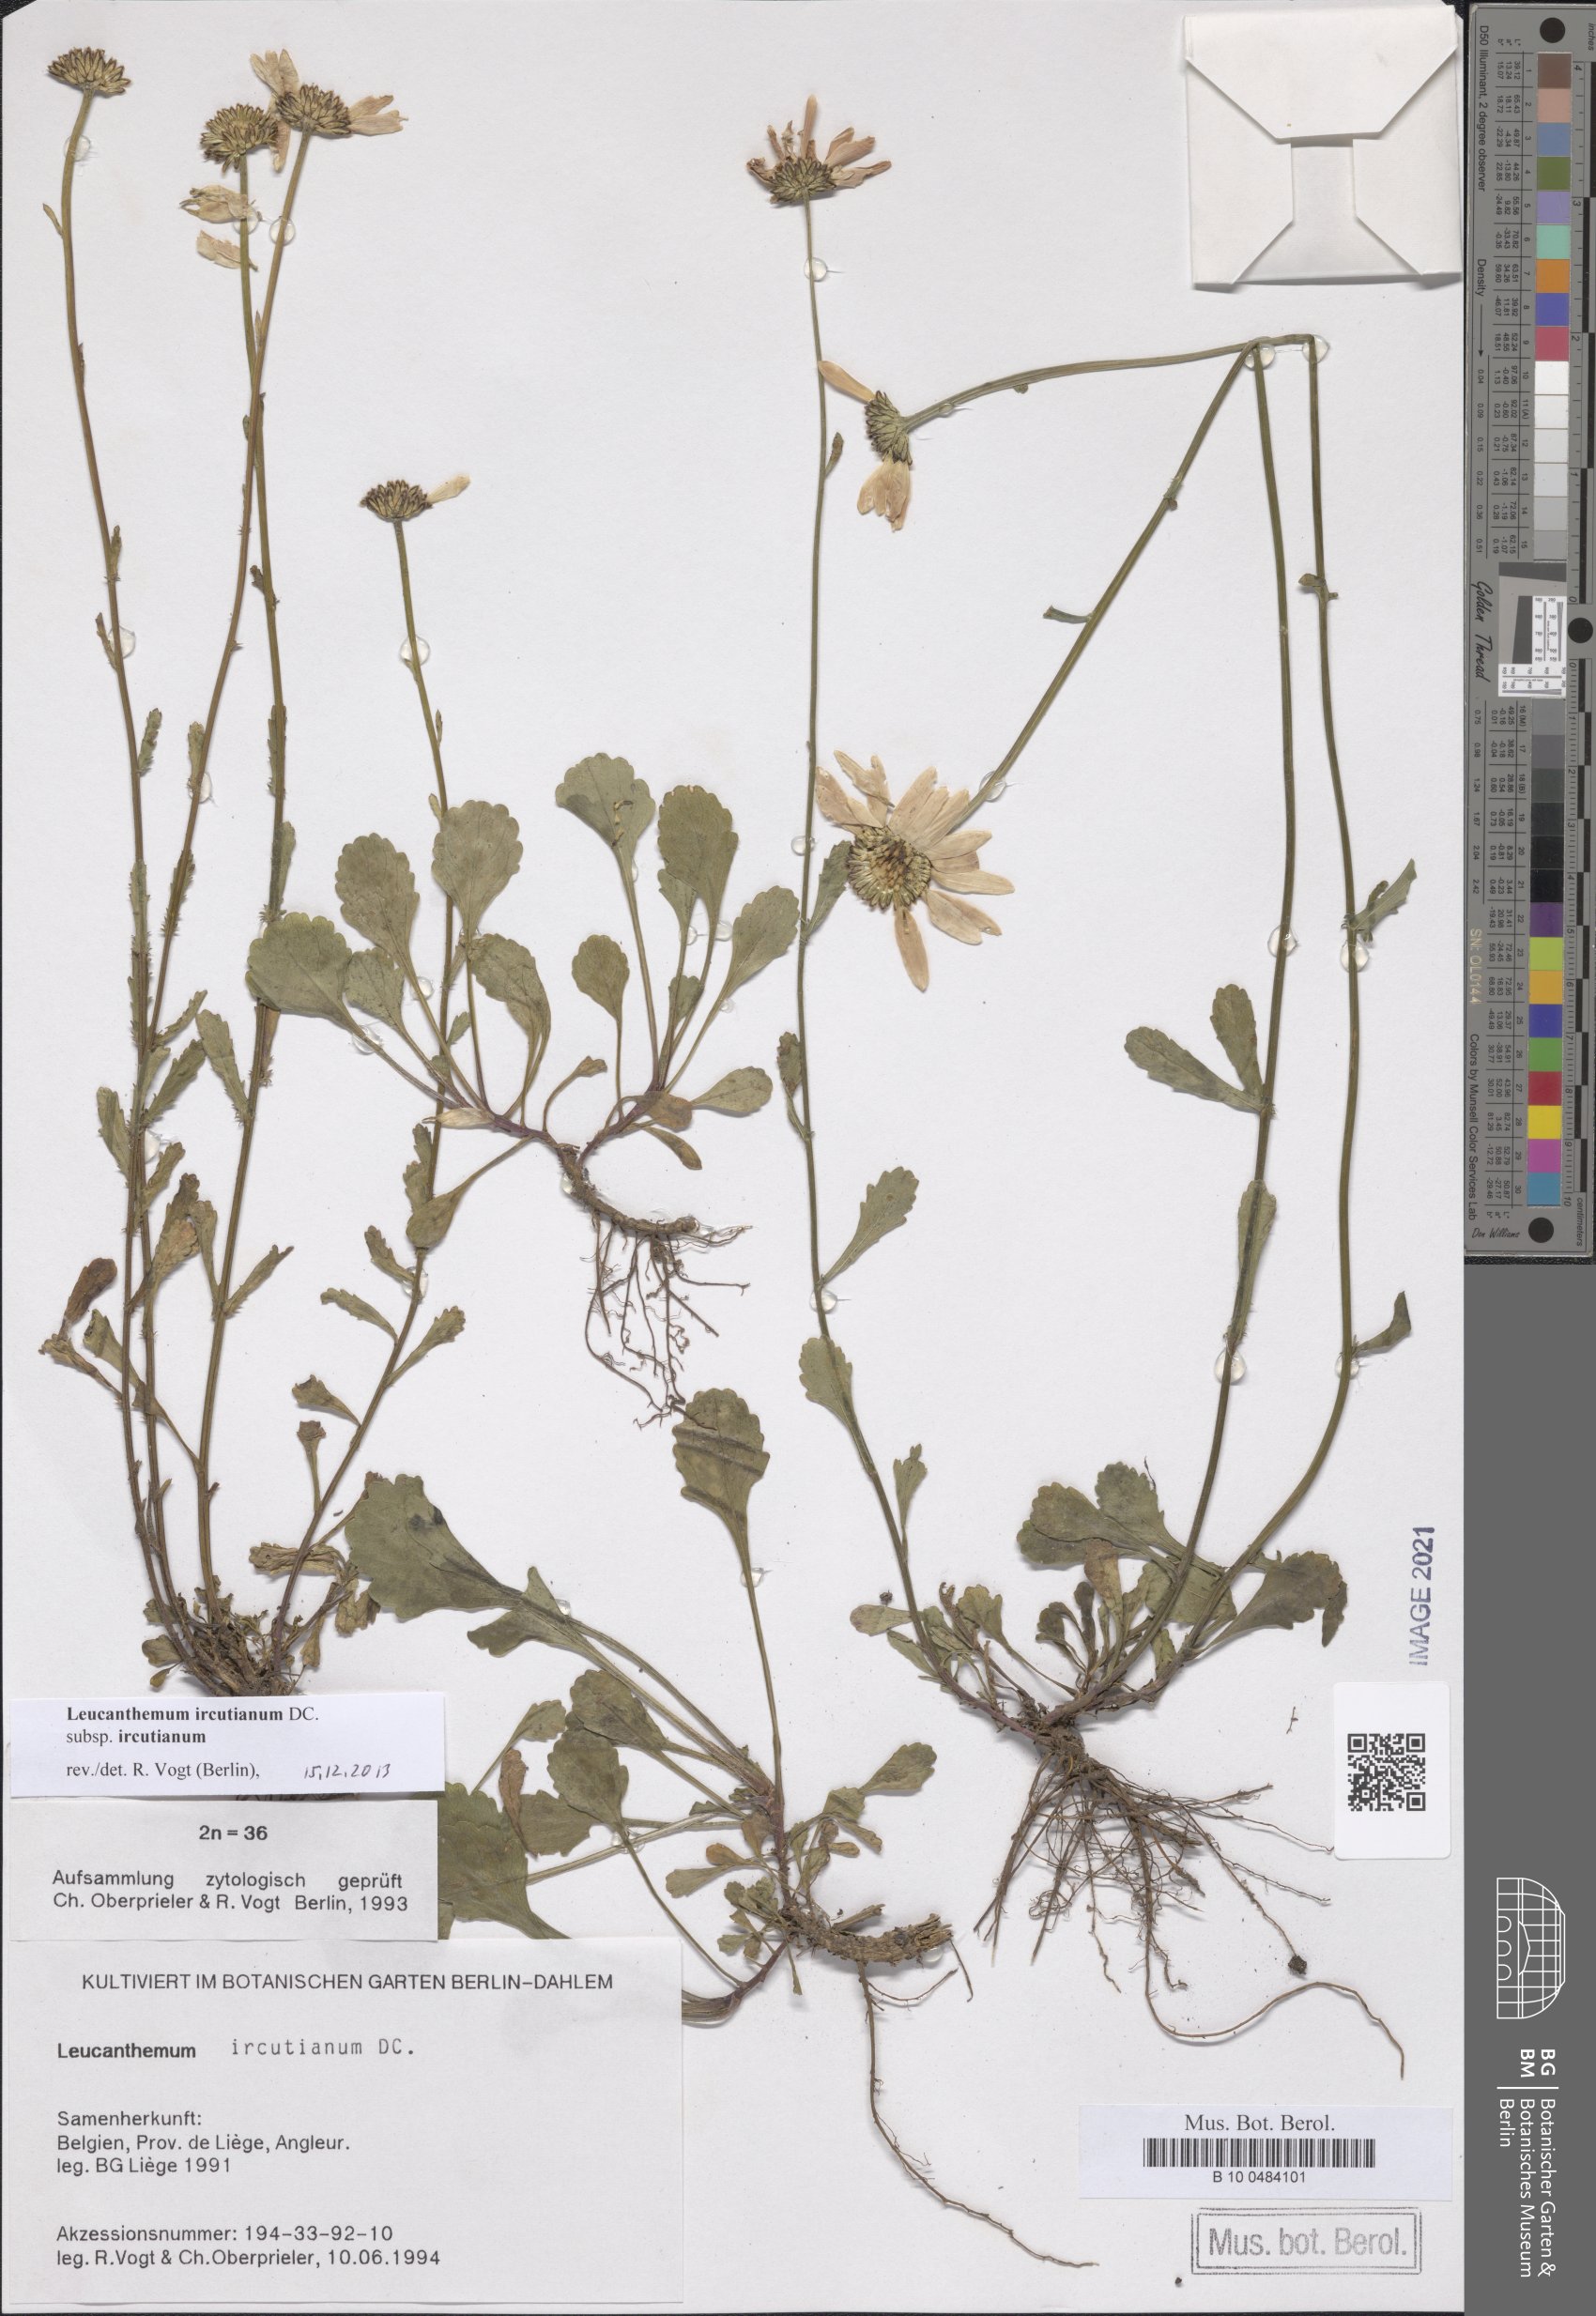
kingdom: Plantae
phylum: Tracheophyta
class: Magnoliopsida
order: Asterales
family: Asteraceae
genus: Leucanthemum
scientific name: Leucanthemum ircutianum
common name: Daisy
